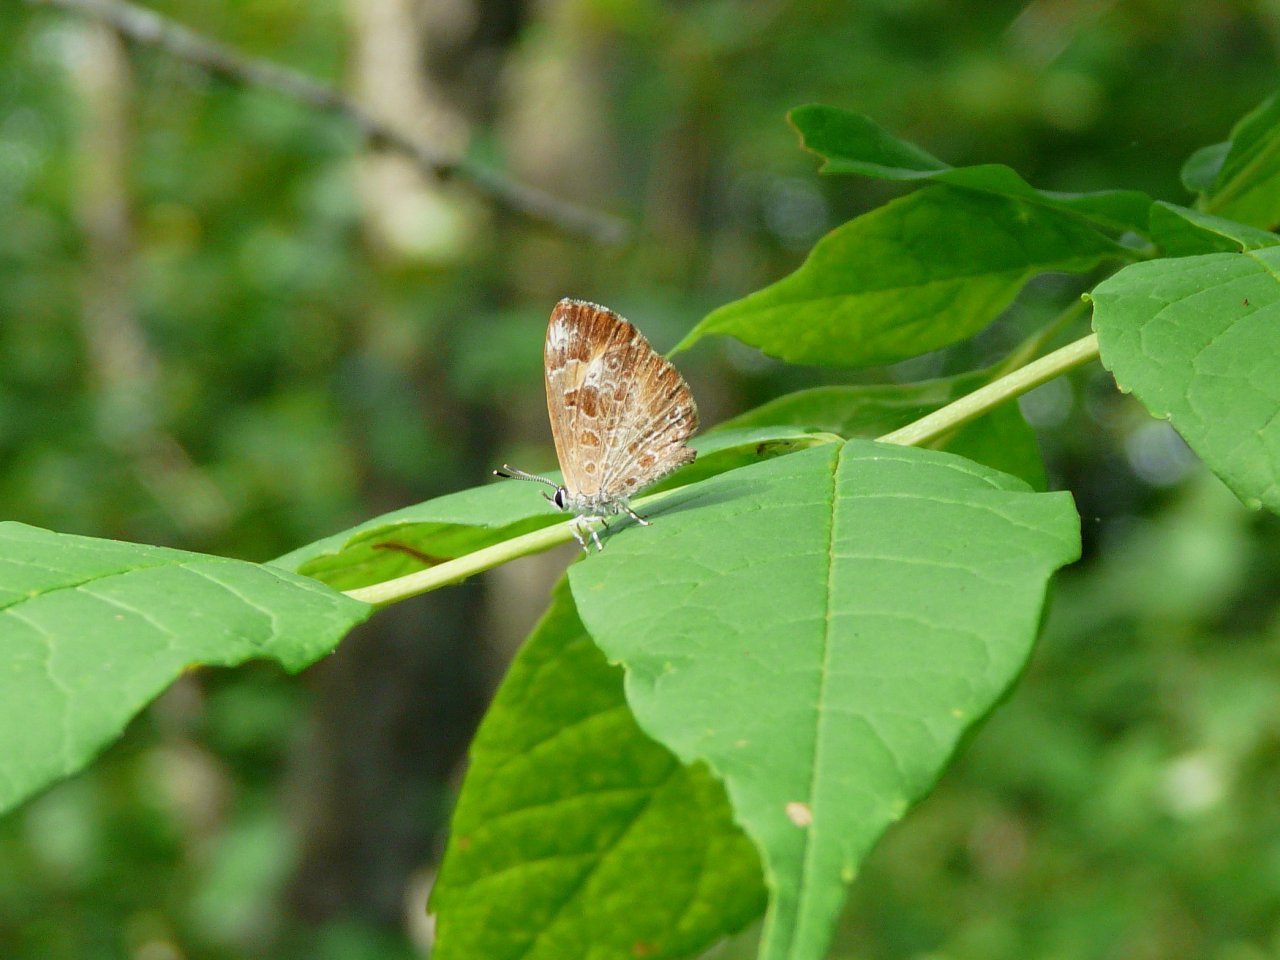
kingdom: Animalia
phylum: Arthropoda
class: Insecta
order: Lepidoptera
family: Lycaenidae
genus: Feniseca
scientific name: Feniseca tarquinius
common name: Harvester
